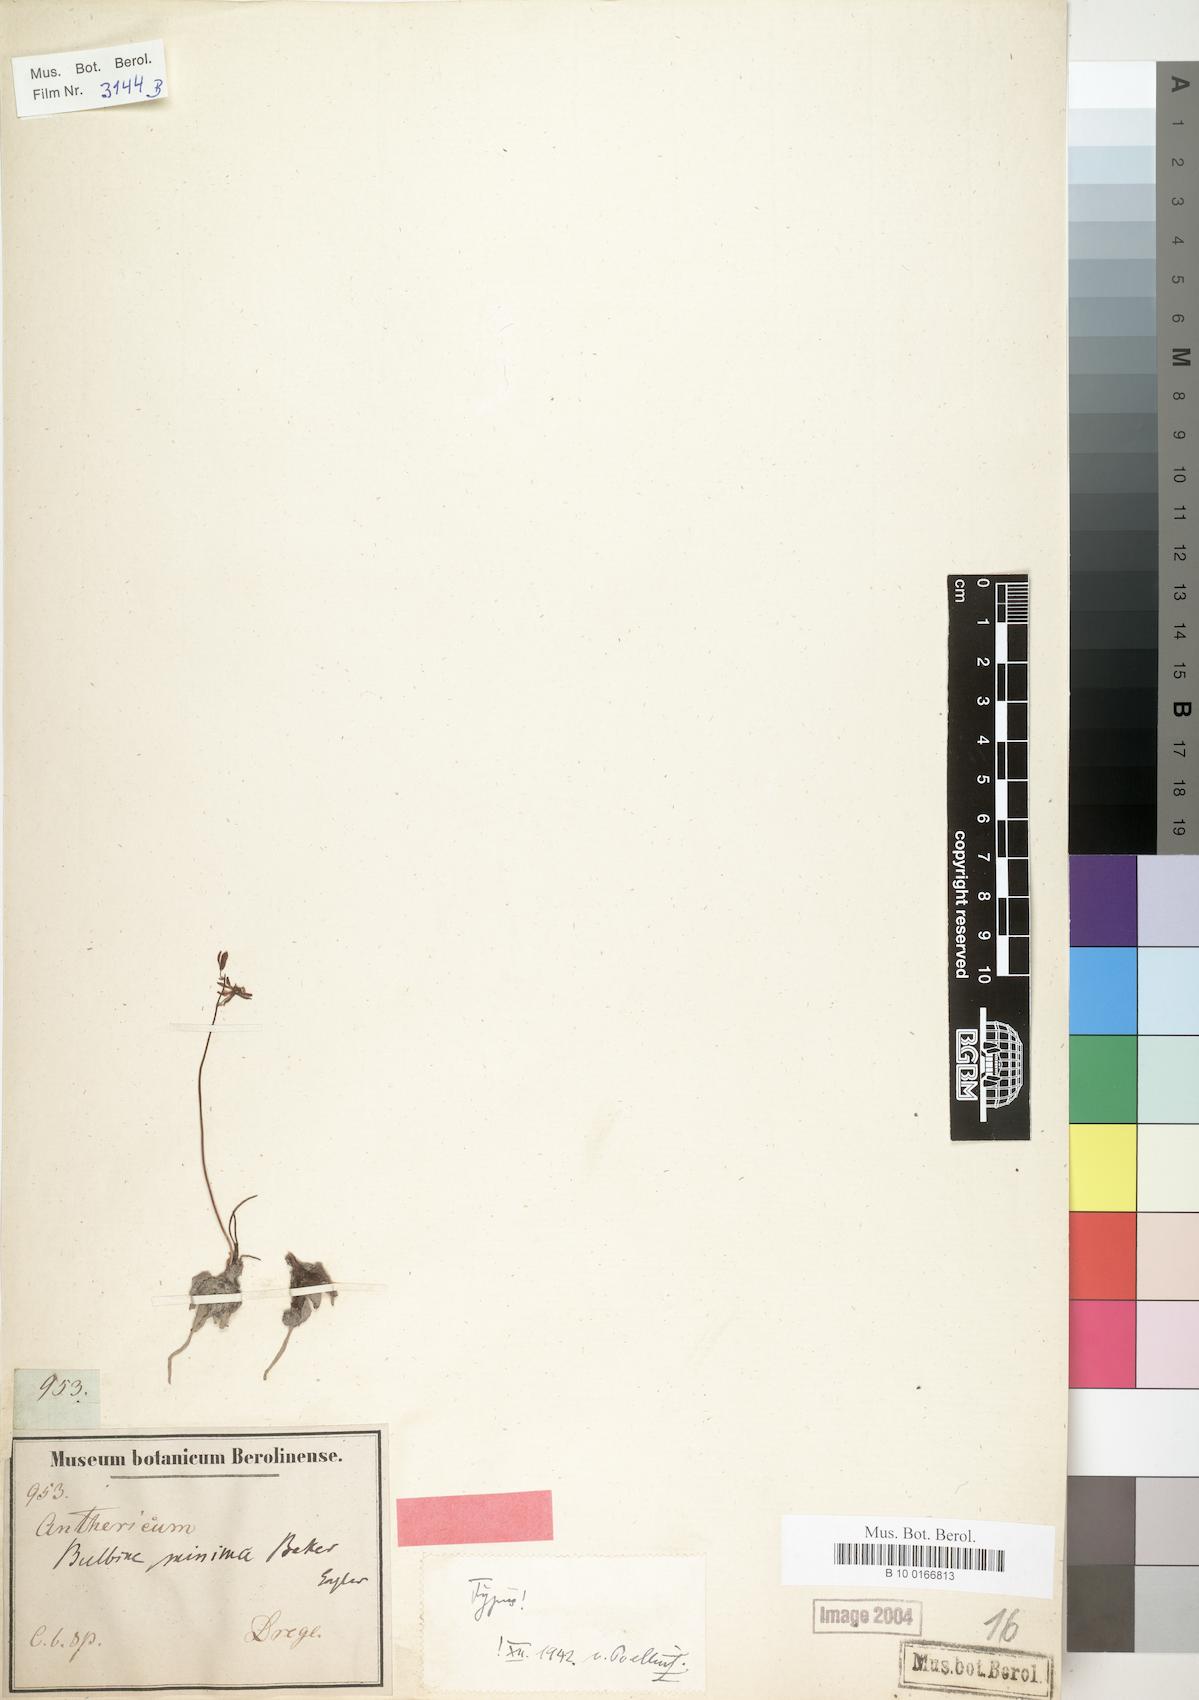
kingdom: Plantae
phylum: Tracheophyta
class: Liliopsida
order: Asparagales
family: Asphodelaceae
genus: Bulbine
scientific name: Bulbine minima
